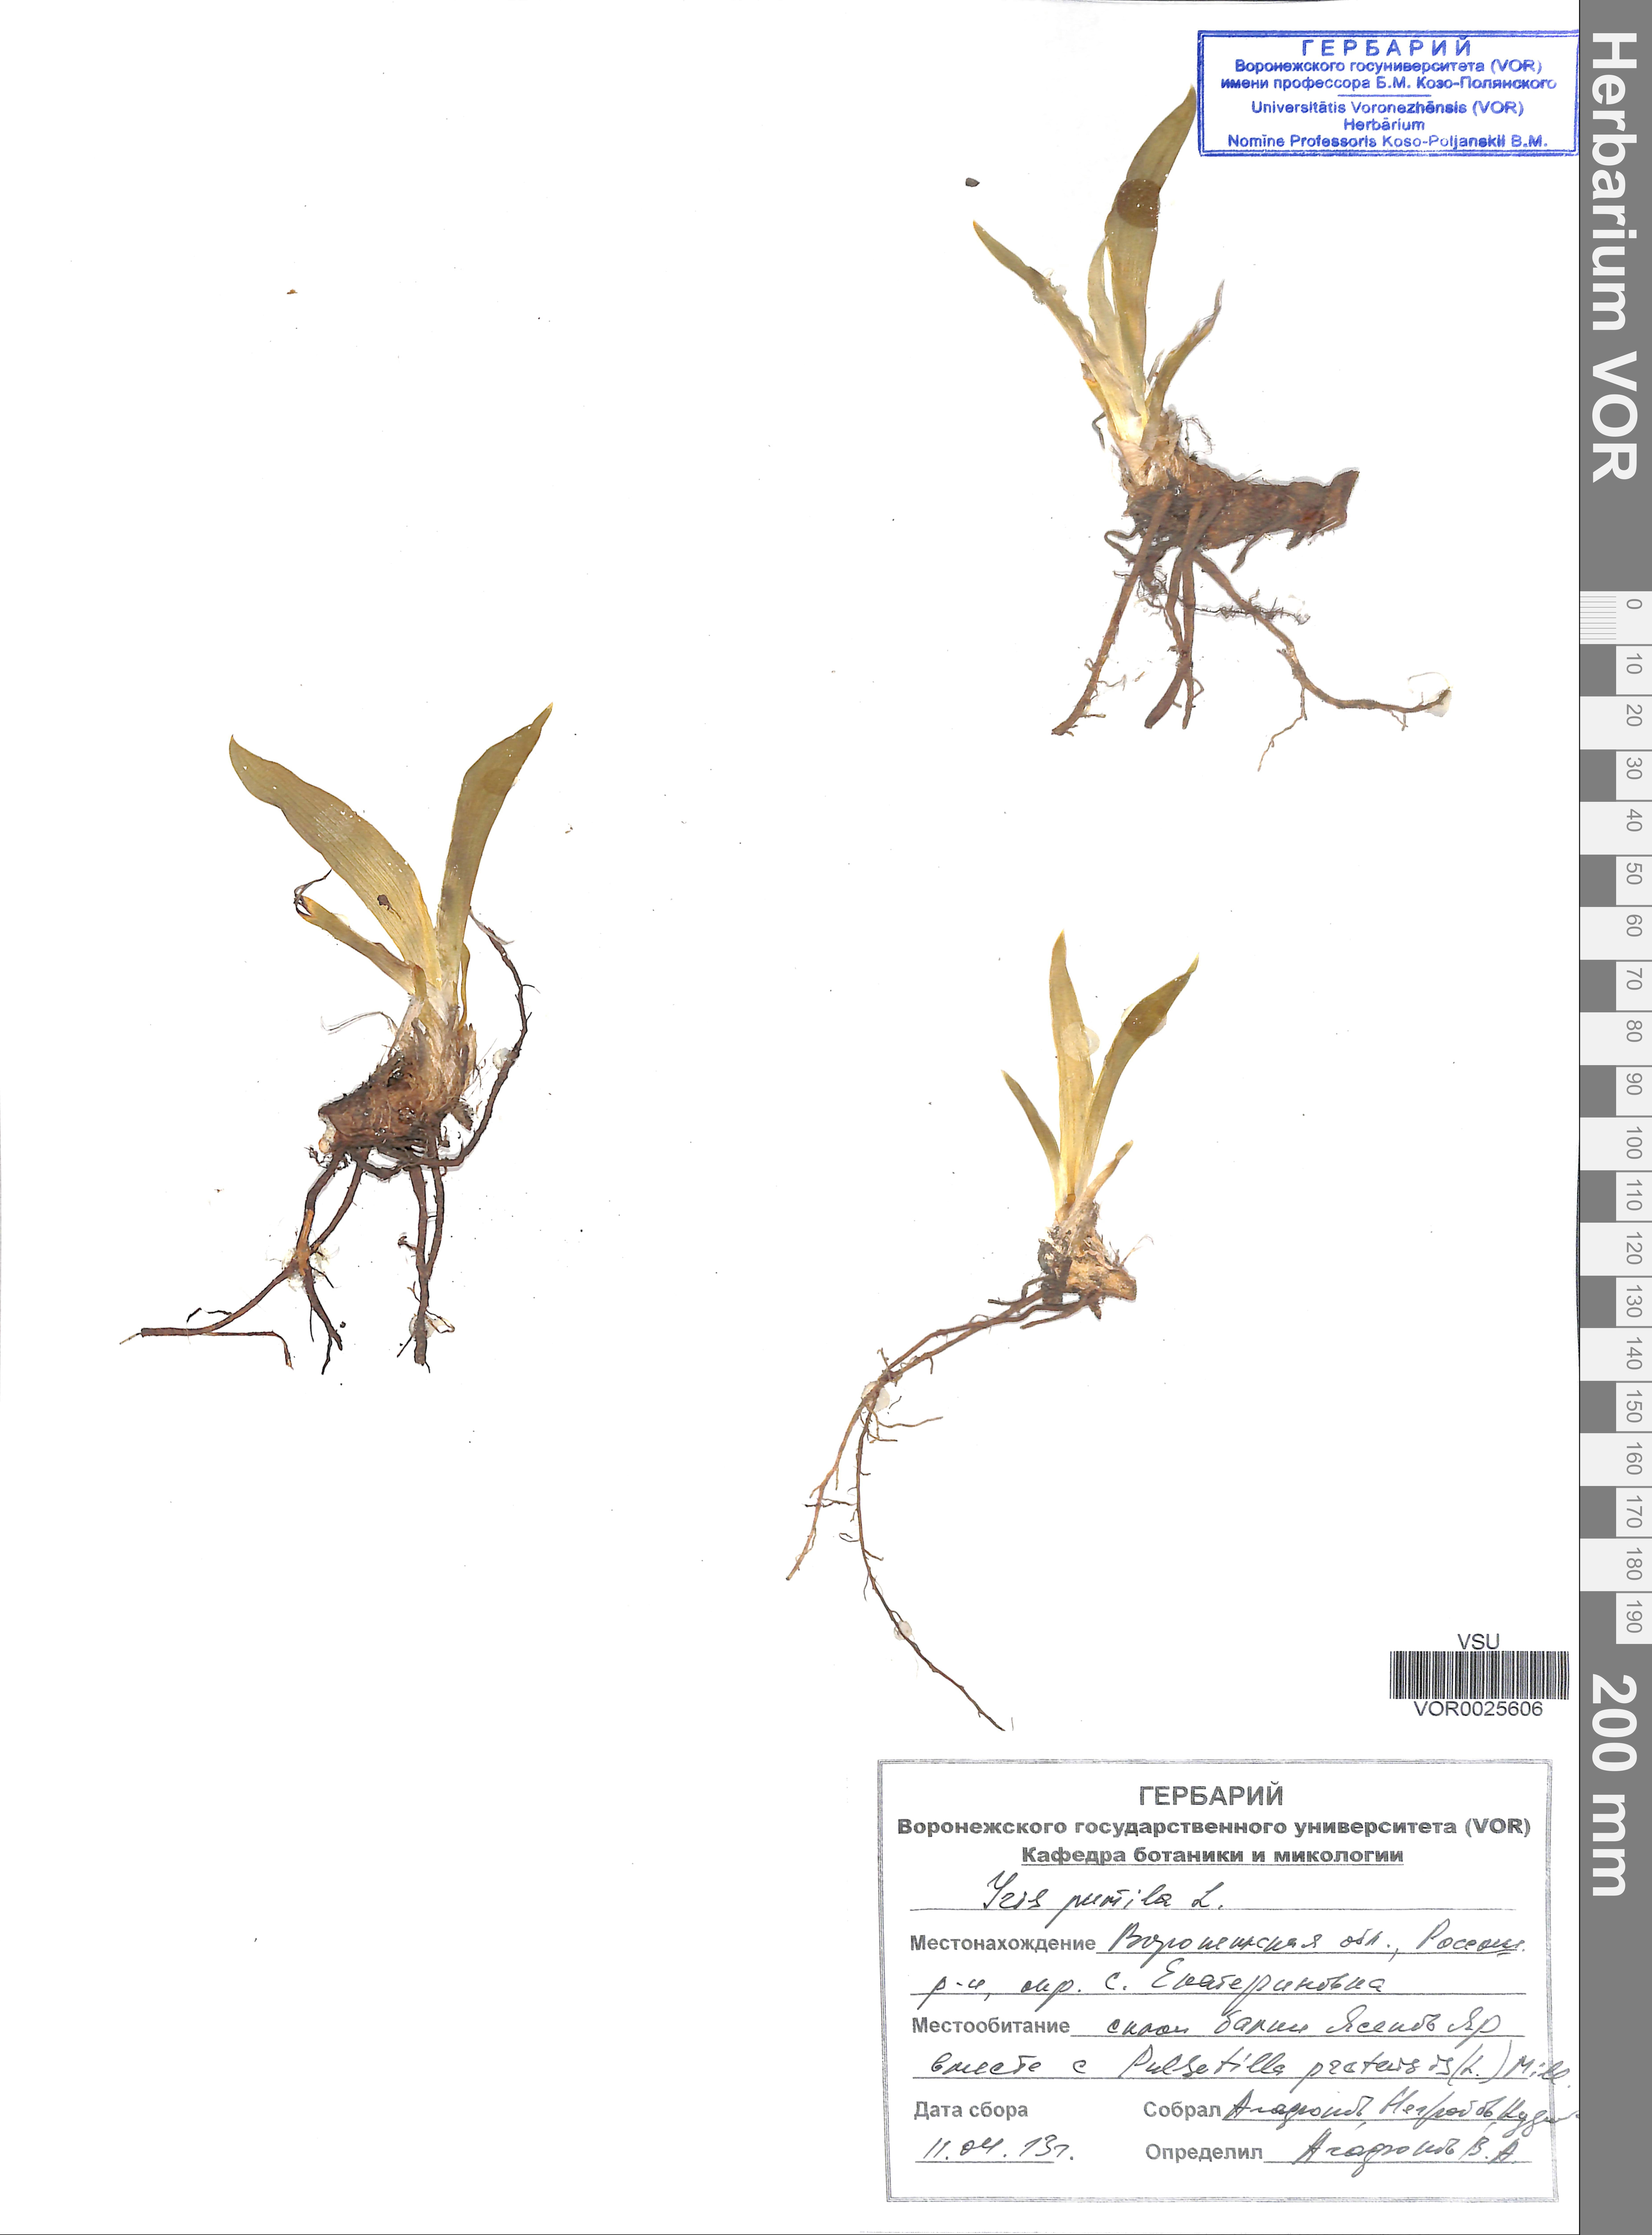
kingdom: Plantae
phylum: Tracheophyta
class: Liliopsida
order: Asparagales
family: Iridaceae
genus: Iris
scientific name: Iris pumila
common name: Dwarf iris
